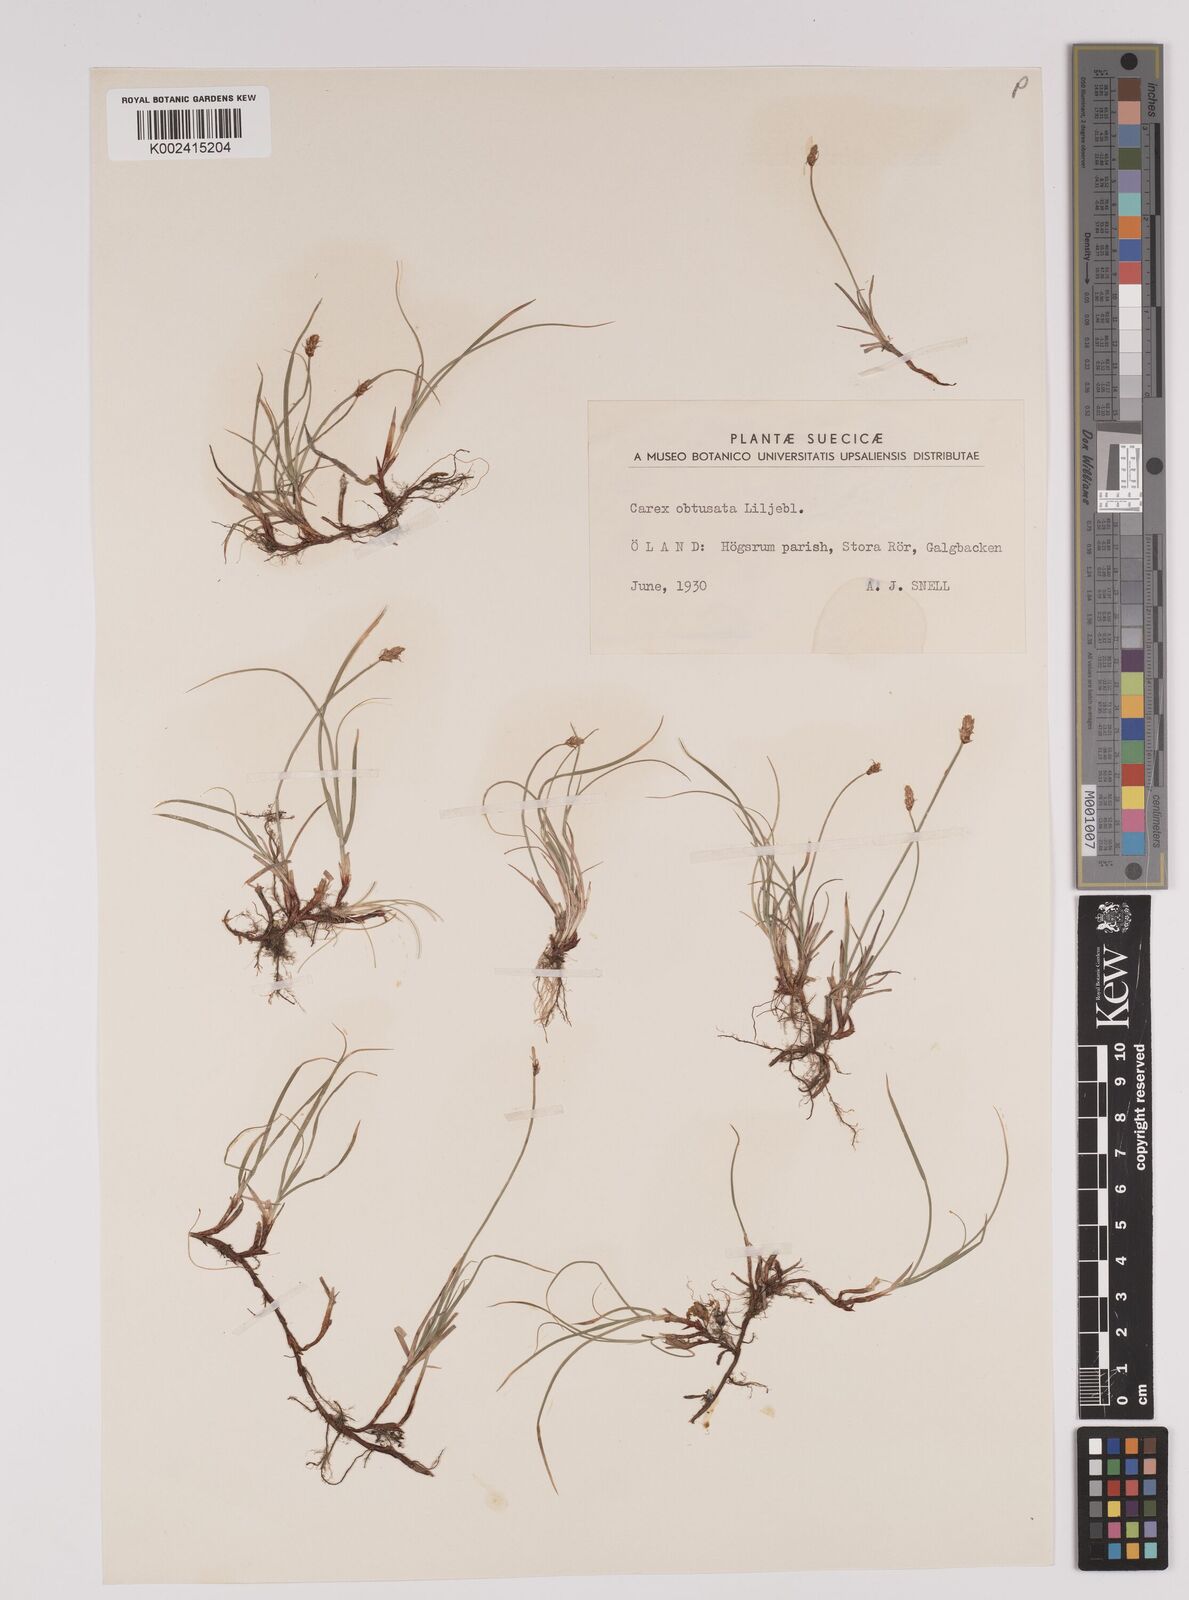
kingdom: Plantae
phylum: Tracheophyta
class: Liliopsida
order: Poales
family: Cyperaceae
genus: Carex
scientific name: Carex obtusata
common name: Blunt sedge
